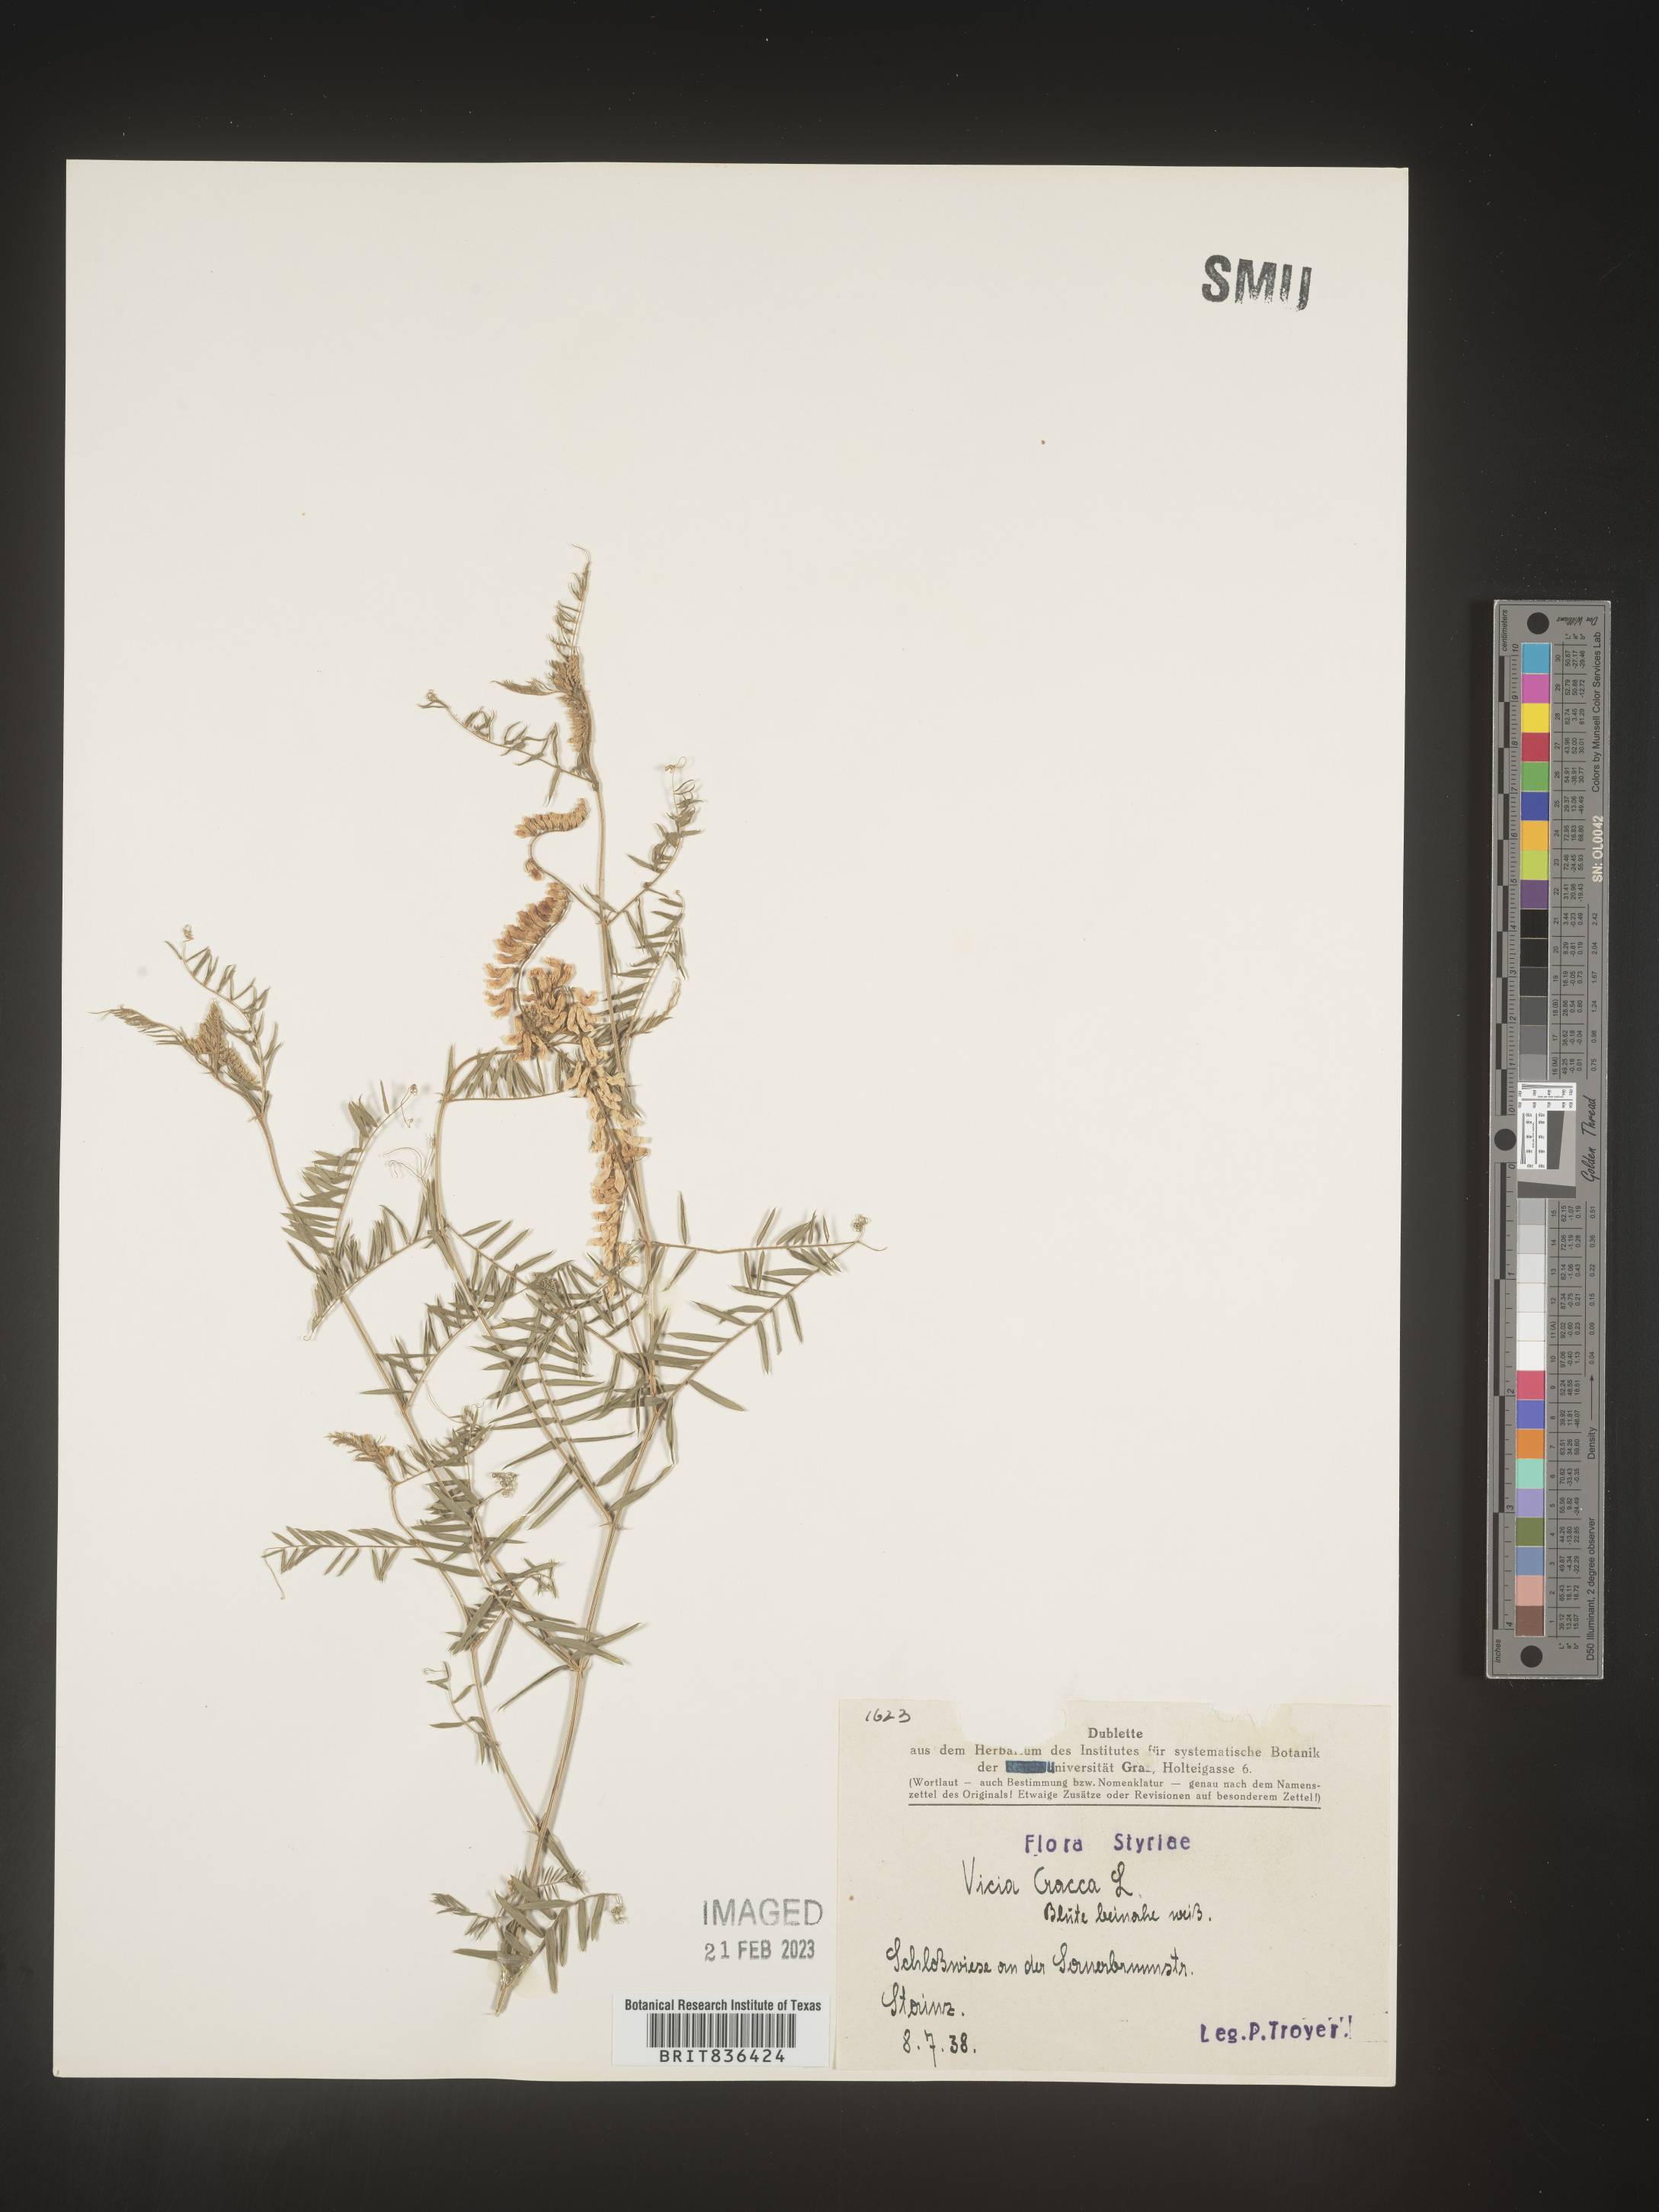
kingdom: Plantae
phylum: Tracheophyta
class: Magnoliopsida
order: Fabales
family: Fabaceae
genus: Vicia
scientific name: Vicia
